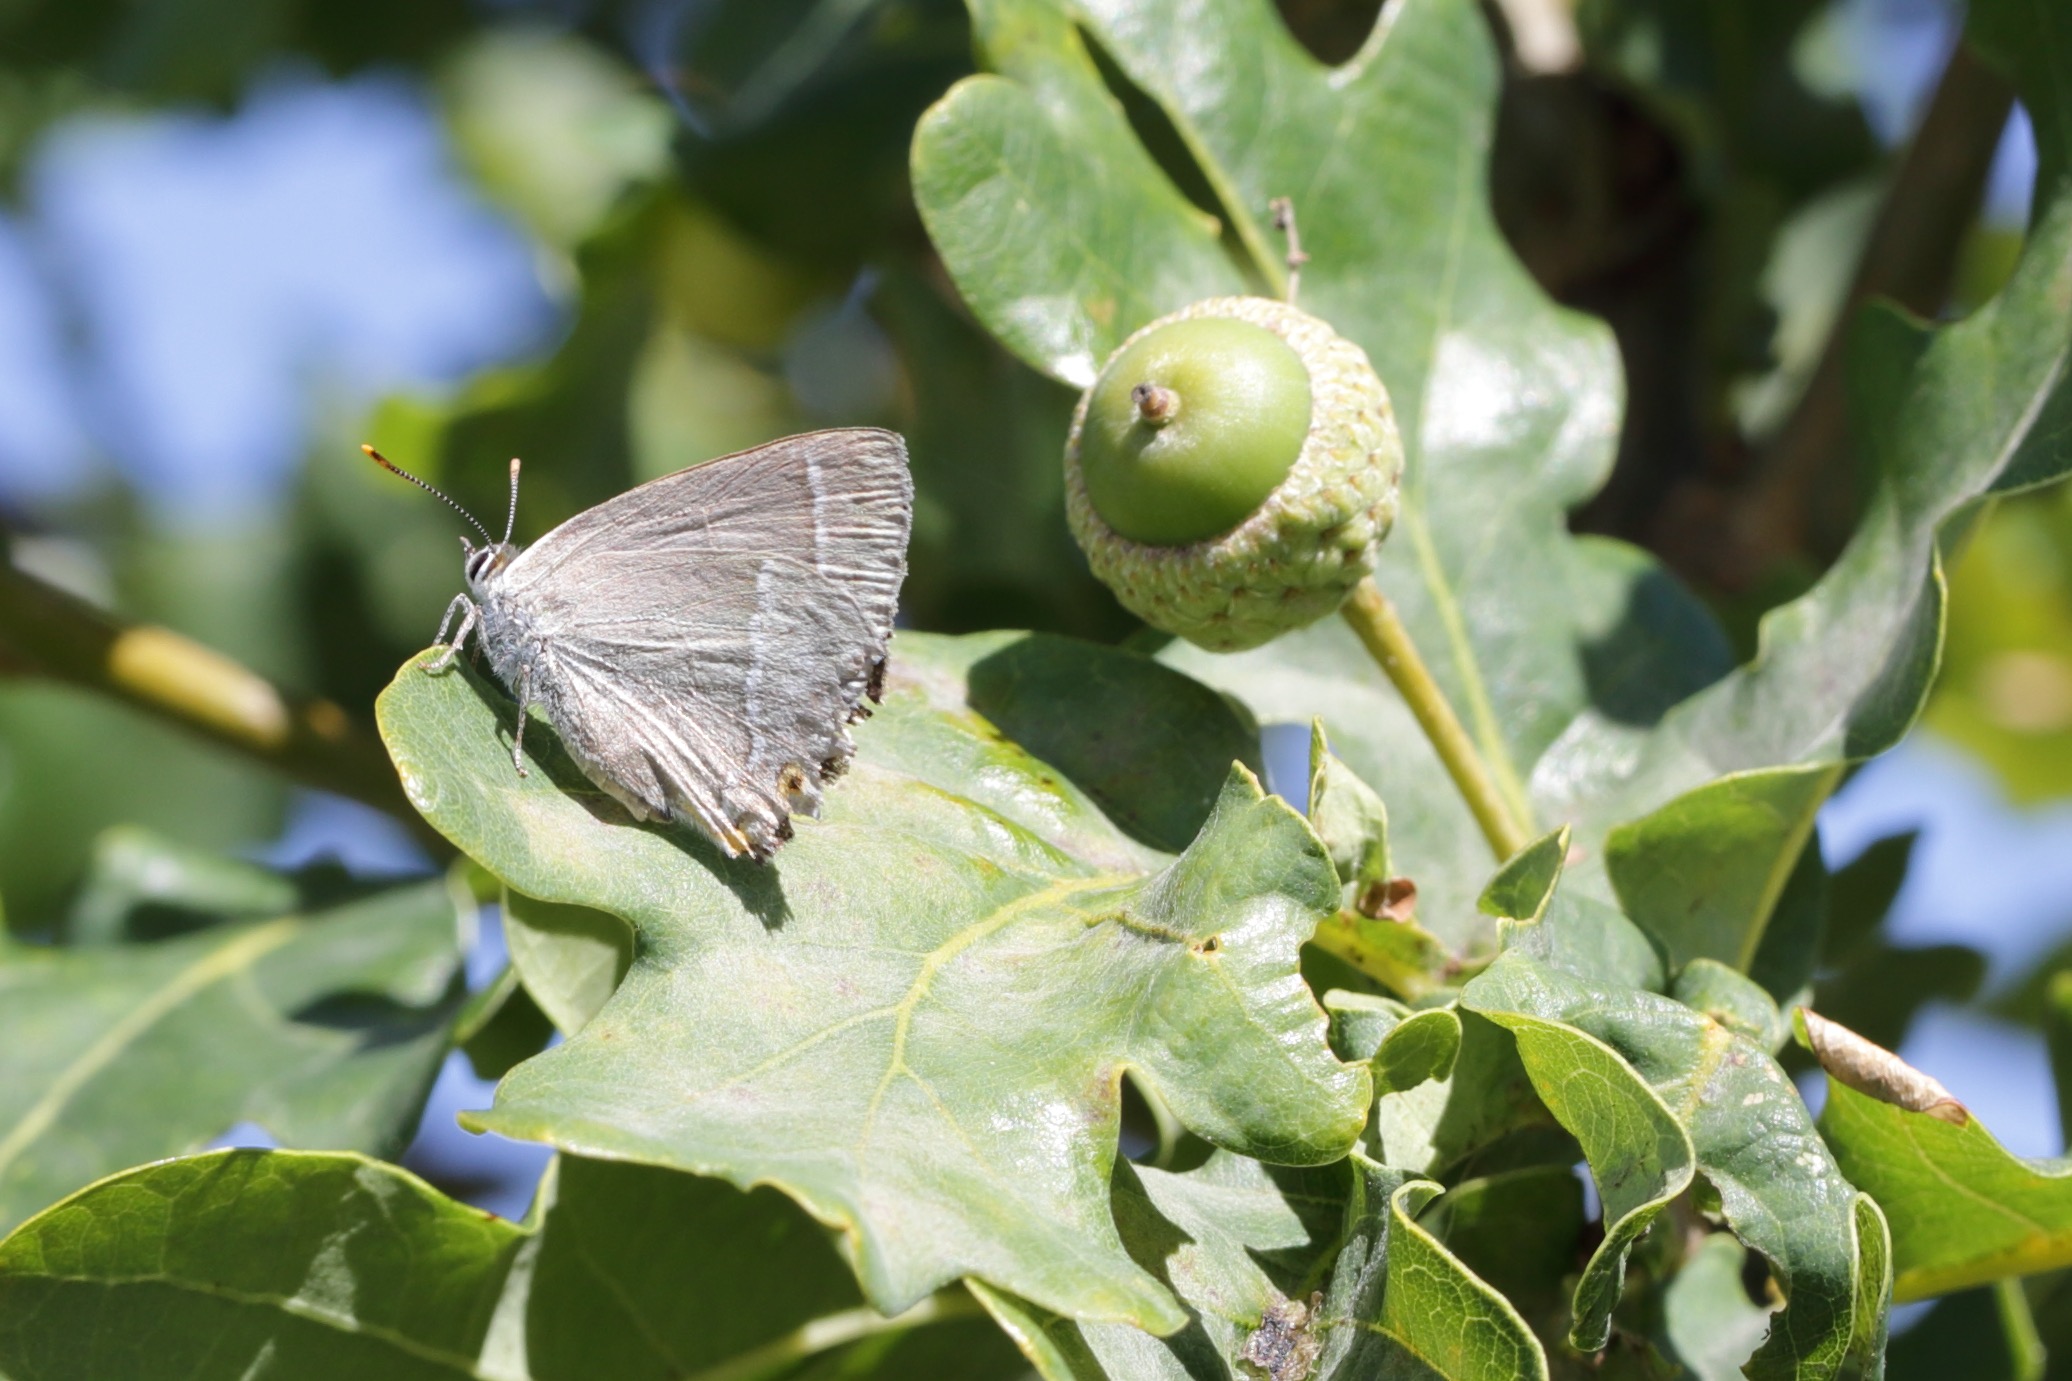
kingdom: Animalia
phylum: Arthropoda
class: Insecta
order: Lepidoptera
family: Lycaenidae
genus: Quercusia
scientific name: Quercusia quercus
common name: Blåhale
